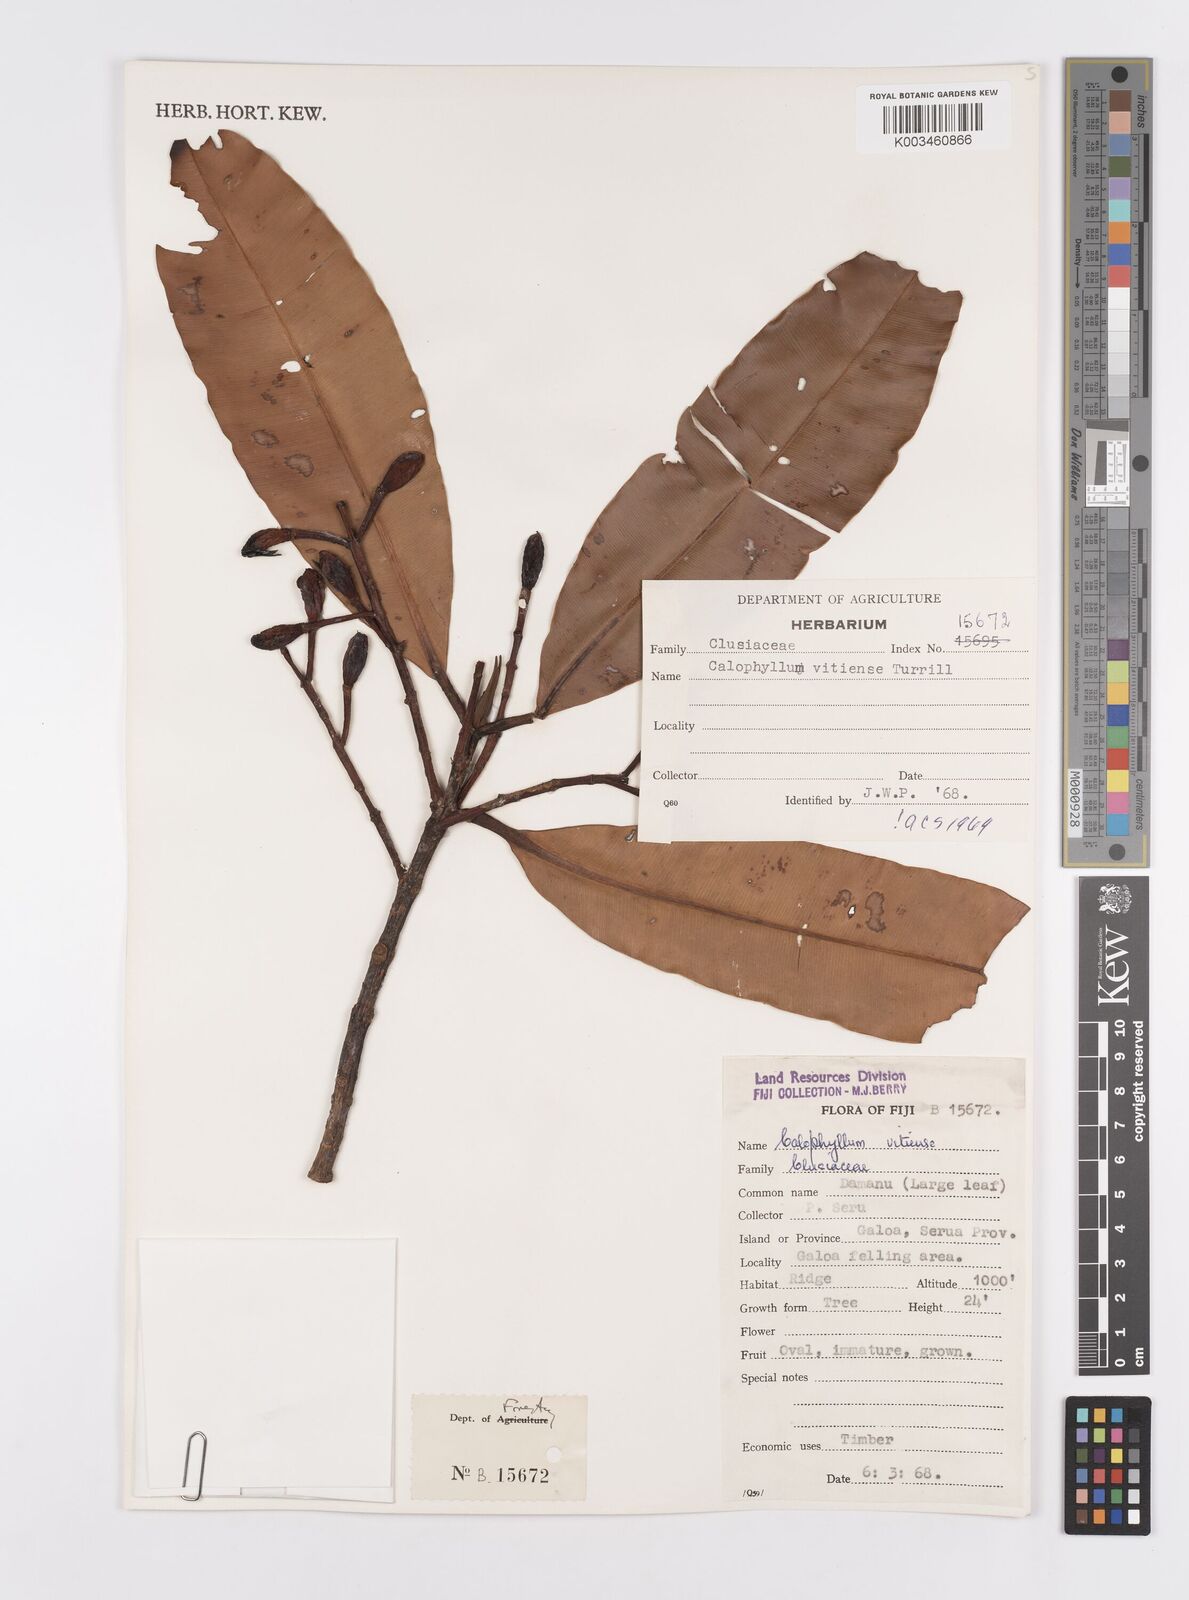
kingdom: Plantae
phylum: Tracheophyta
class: Magnoliopsida
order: Malpighiales
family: Calophyllaceae
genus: Calophyllum
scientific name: Calophyllum vitiense
